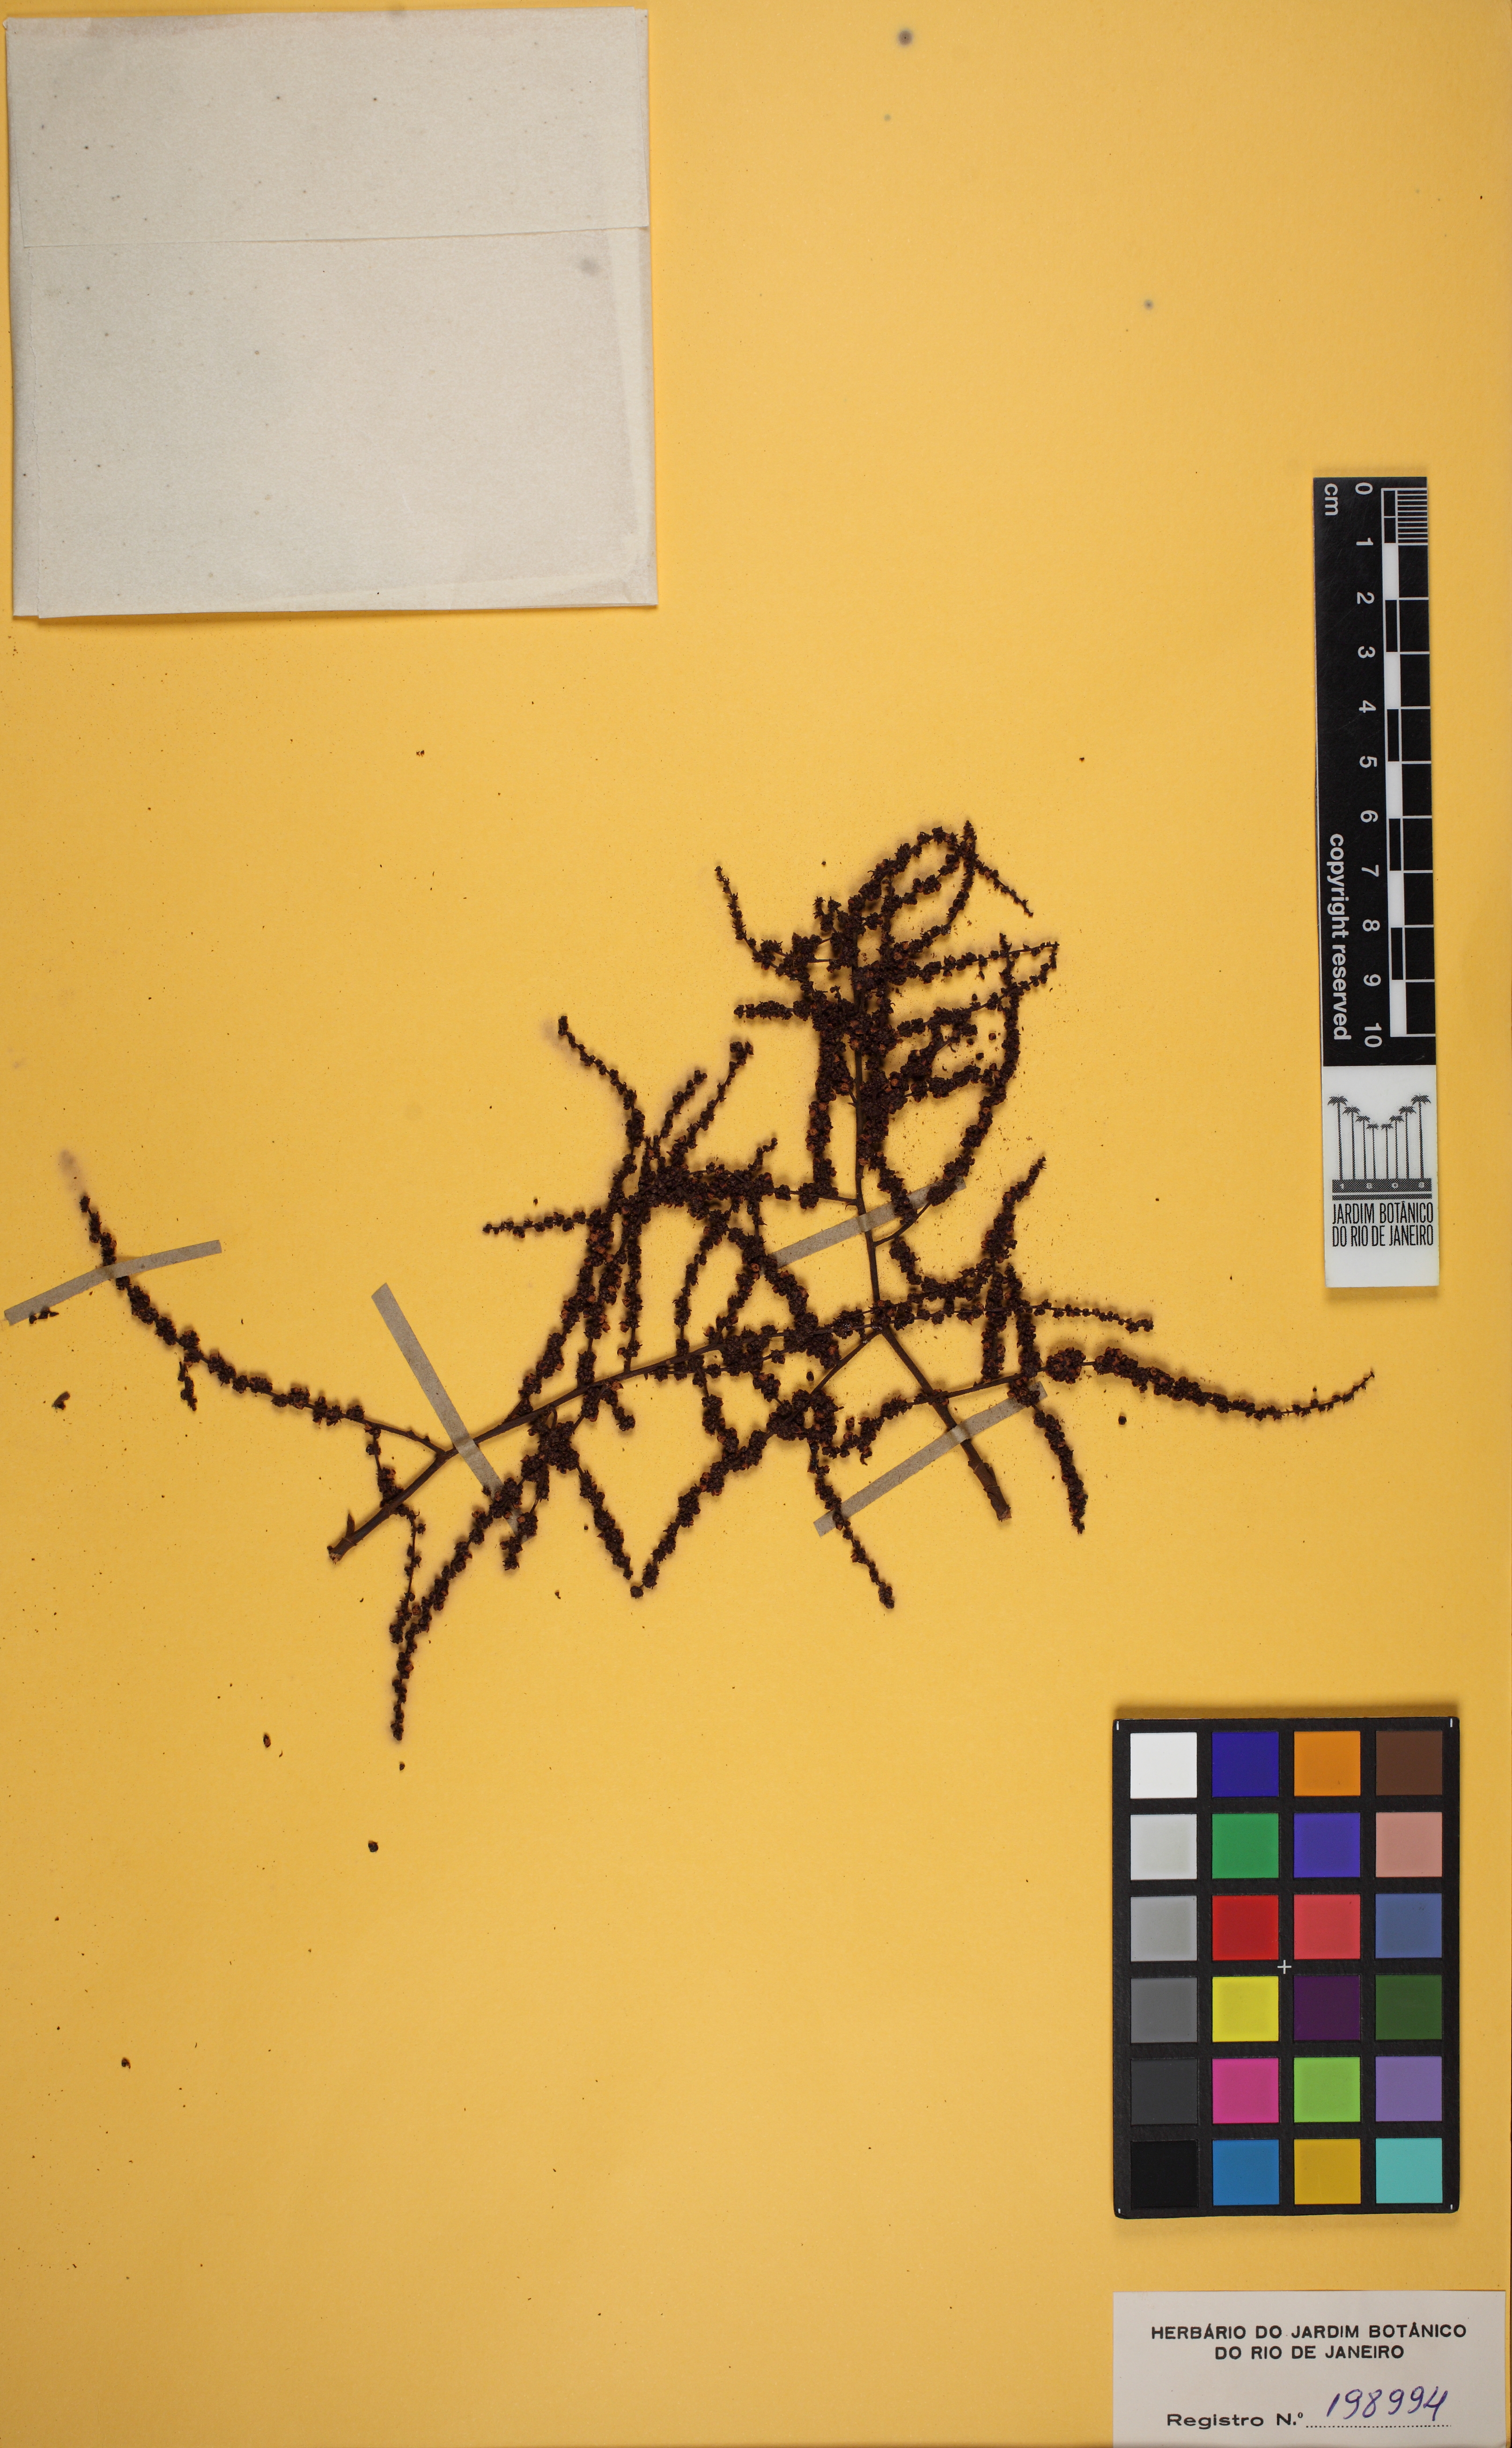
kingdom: Plantae
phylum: Tracheophyta
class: Magnoliopsida
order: Caryophyllales
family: Polygonaceae
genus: Symmeria
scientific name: Symmeria paniculata
